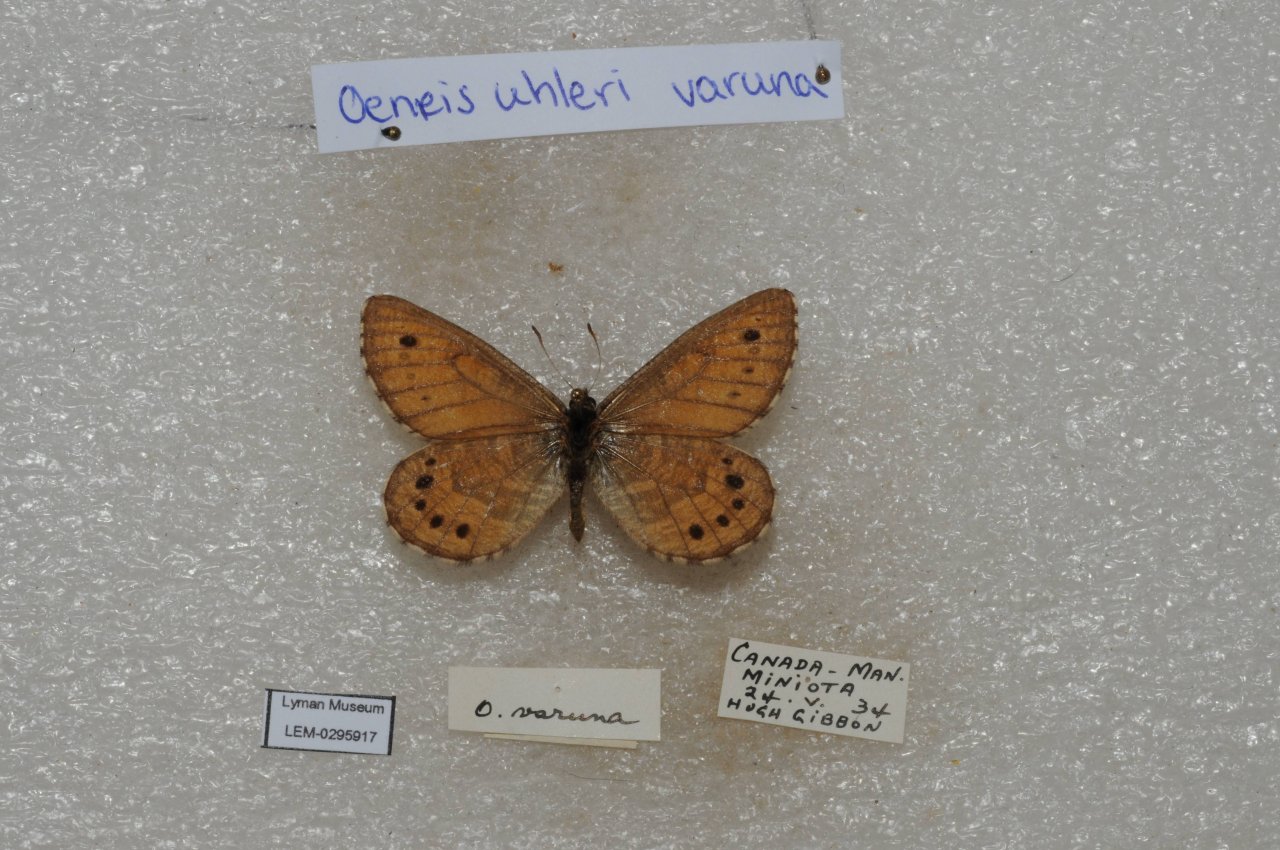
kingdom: Animalia
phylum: Arthropoda
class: Insecta
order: Lepidoptera
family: Nymphalidae
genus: Oeneis
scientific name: Oeneis uhleri
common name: Uhler's Arctic
